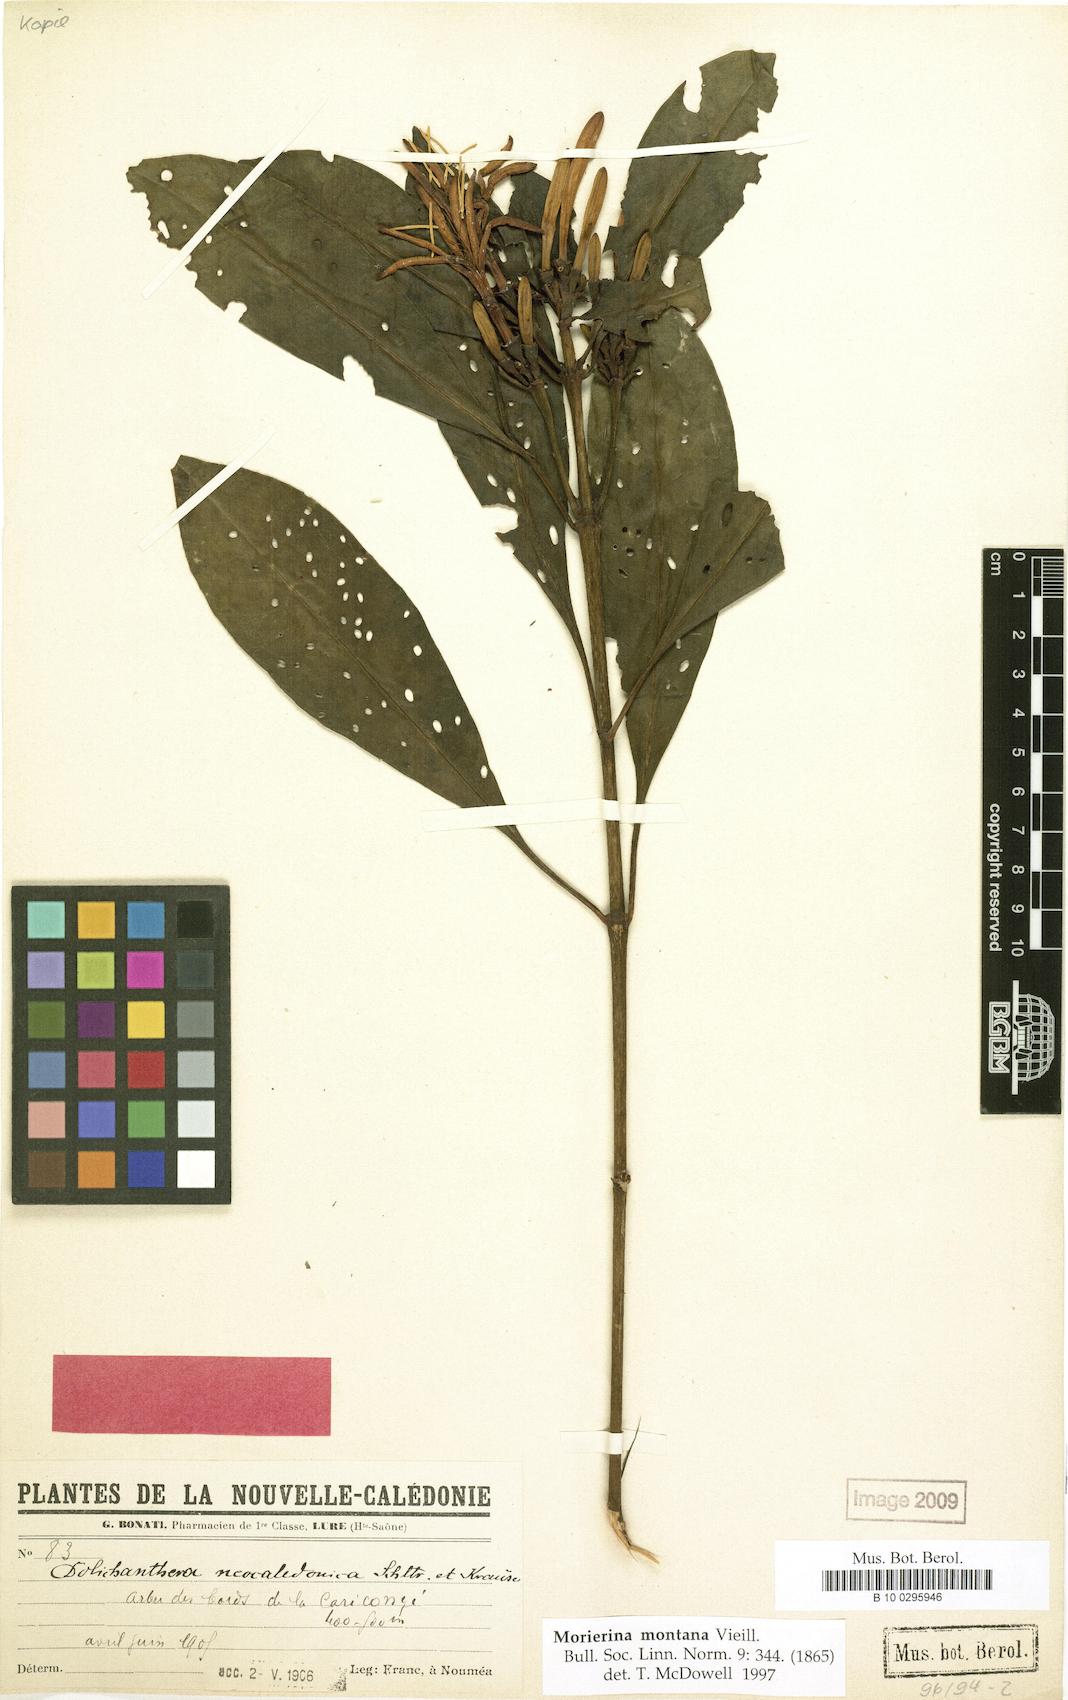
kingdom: Plantae
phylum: Tracheophyta
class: Magnoliopsida
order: Gentianales
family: Rubiaceae
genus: Thiollierea
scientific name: Thiollierea montana
